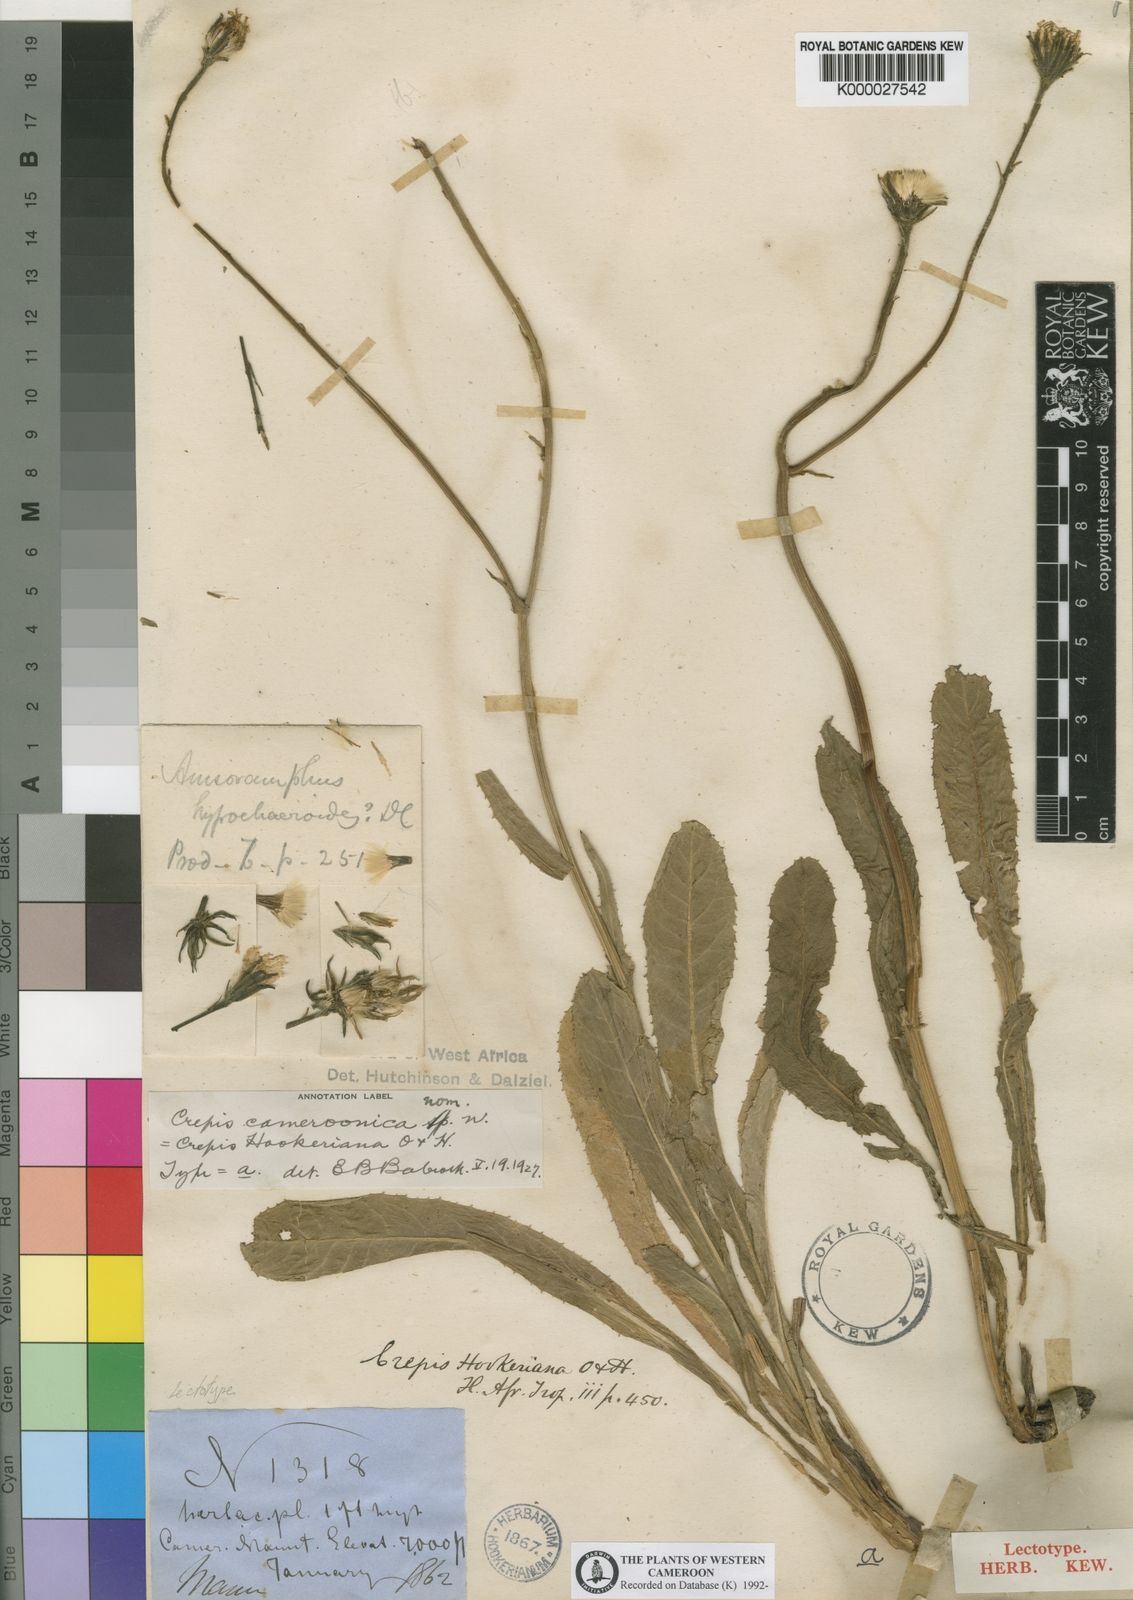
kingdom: Plantae
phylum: Tracheophyta
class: Magnoliopsida
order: Asterales
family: Asteraceae
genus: Crepis
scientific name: Crepis newii
